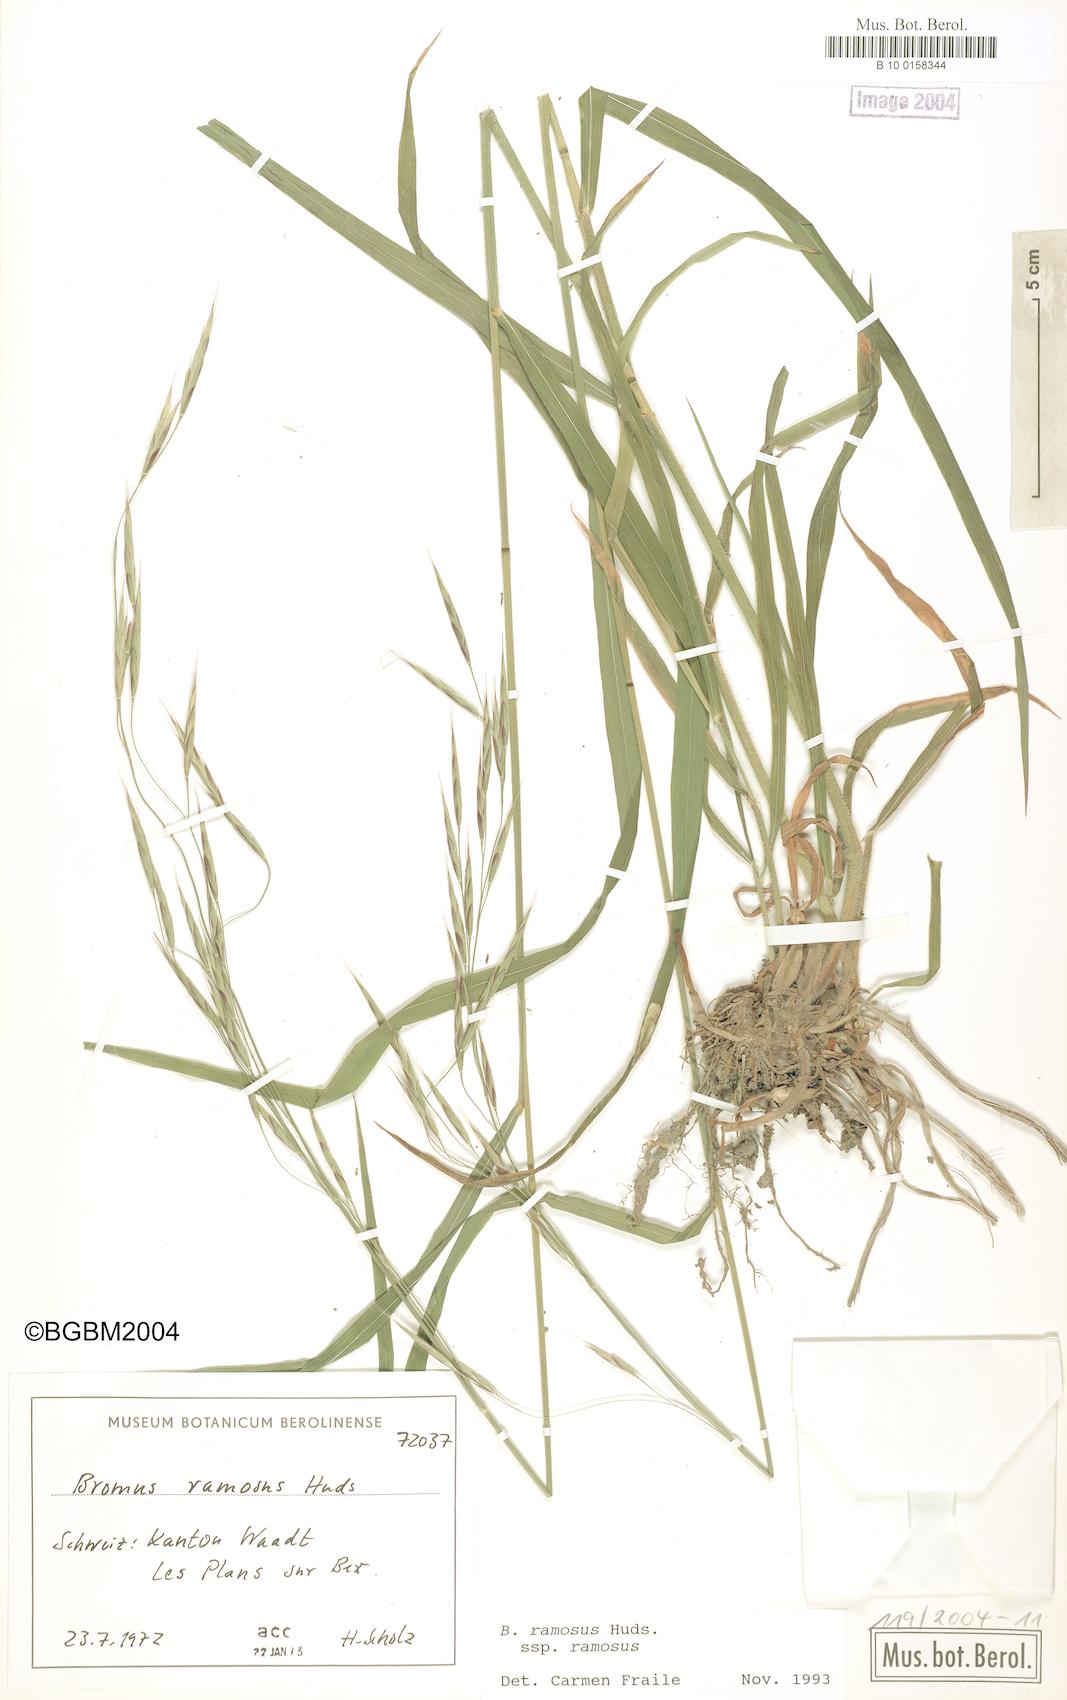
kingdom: Plantae
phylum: Tracheophyta
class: Liliopsida
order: Poales
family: Poaceae
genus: Bromus
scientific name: Bromus ramosus
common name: Hairy brome
